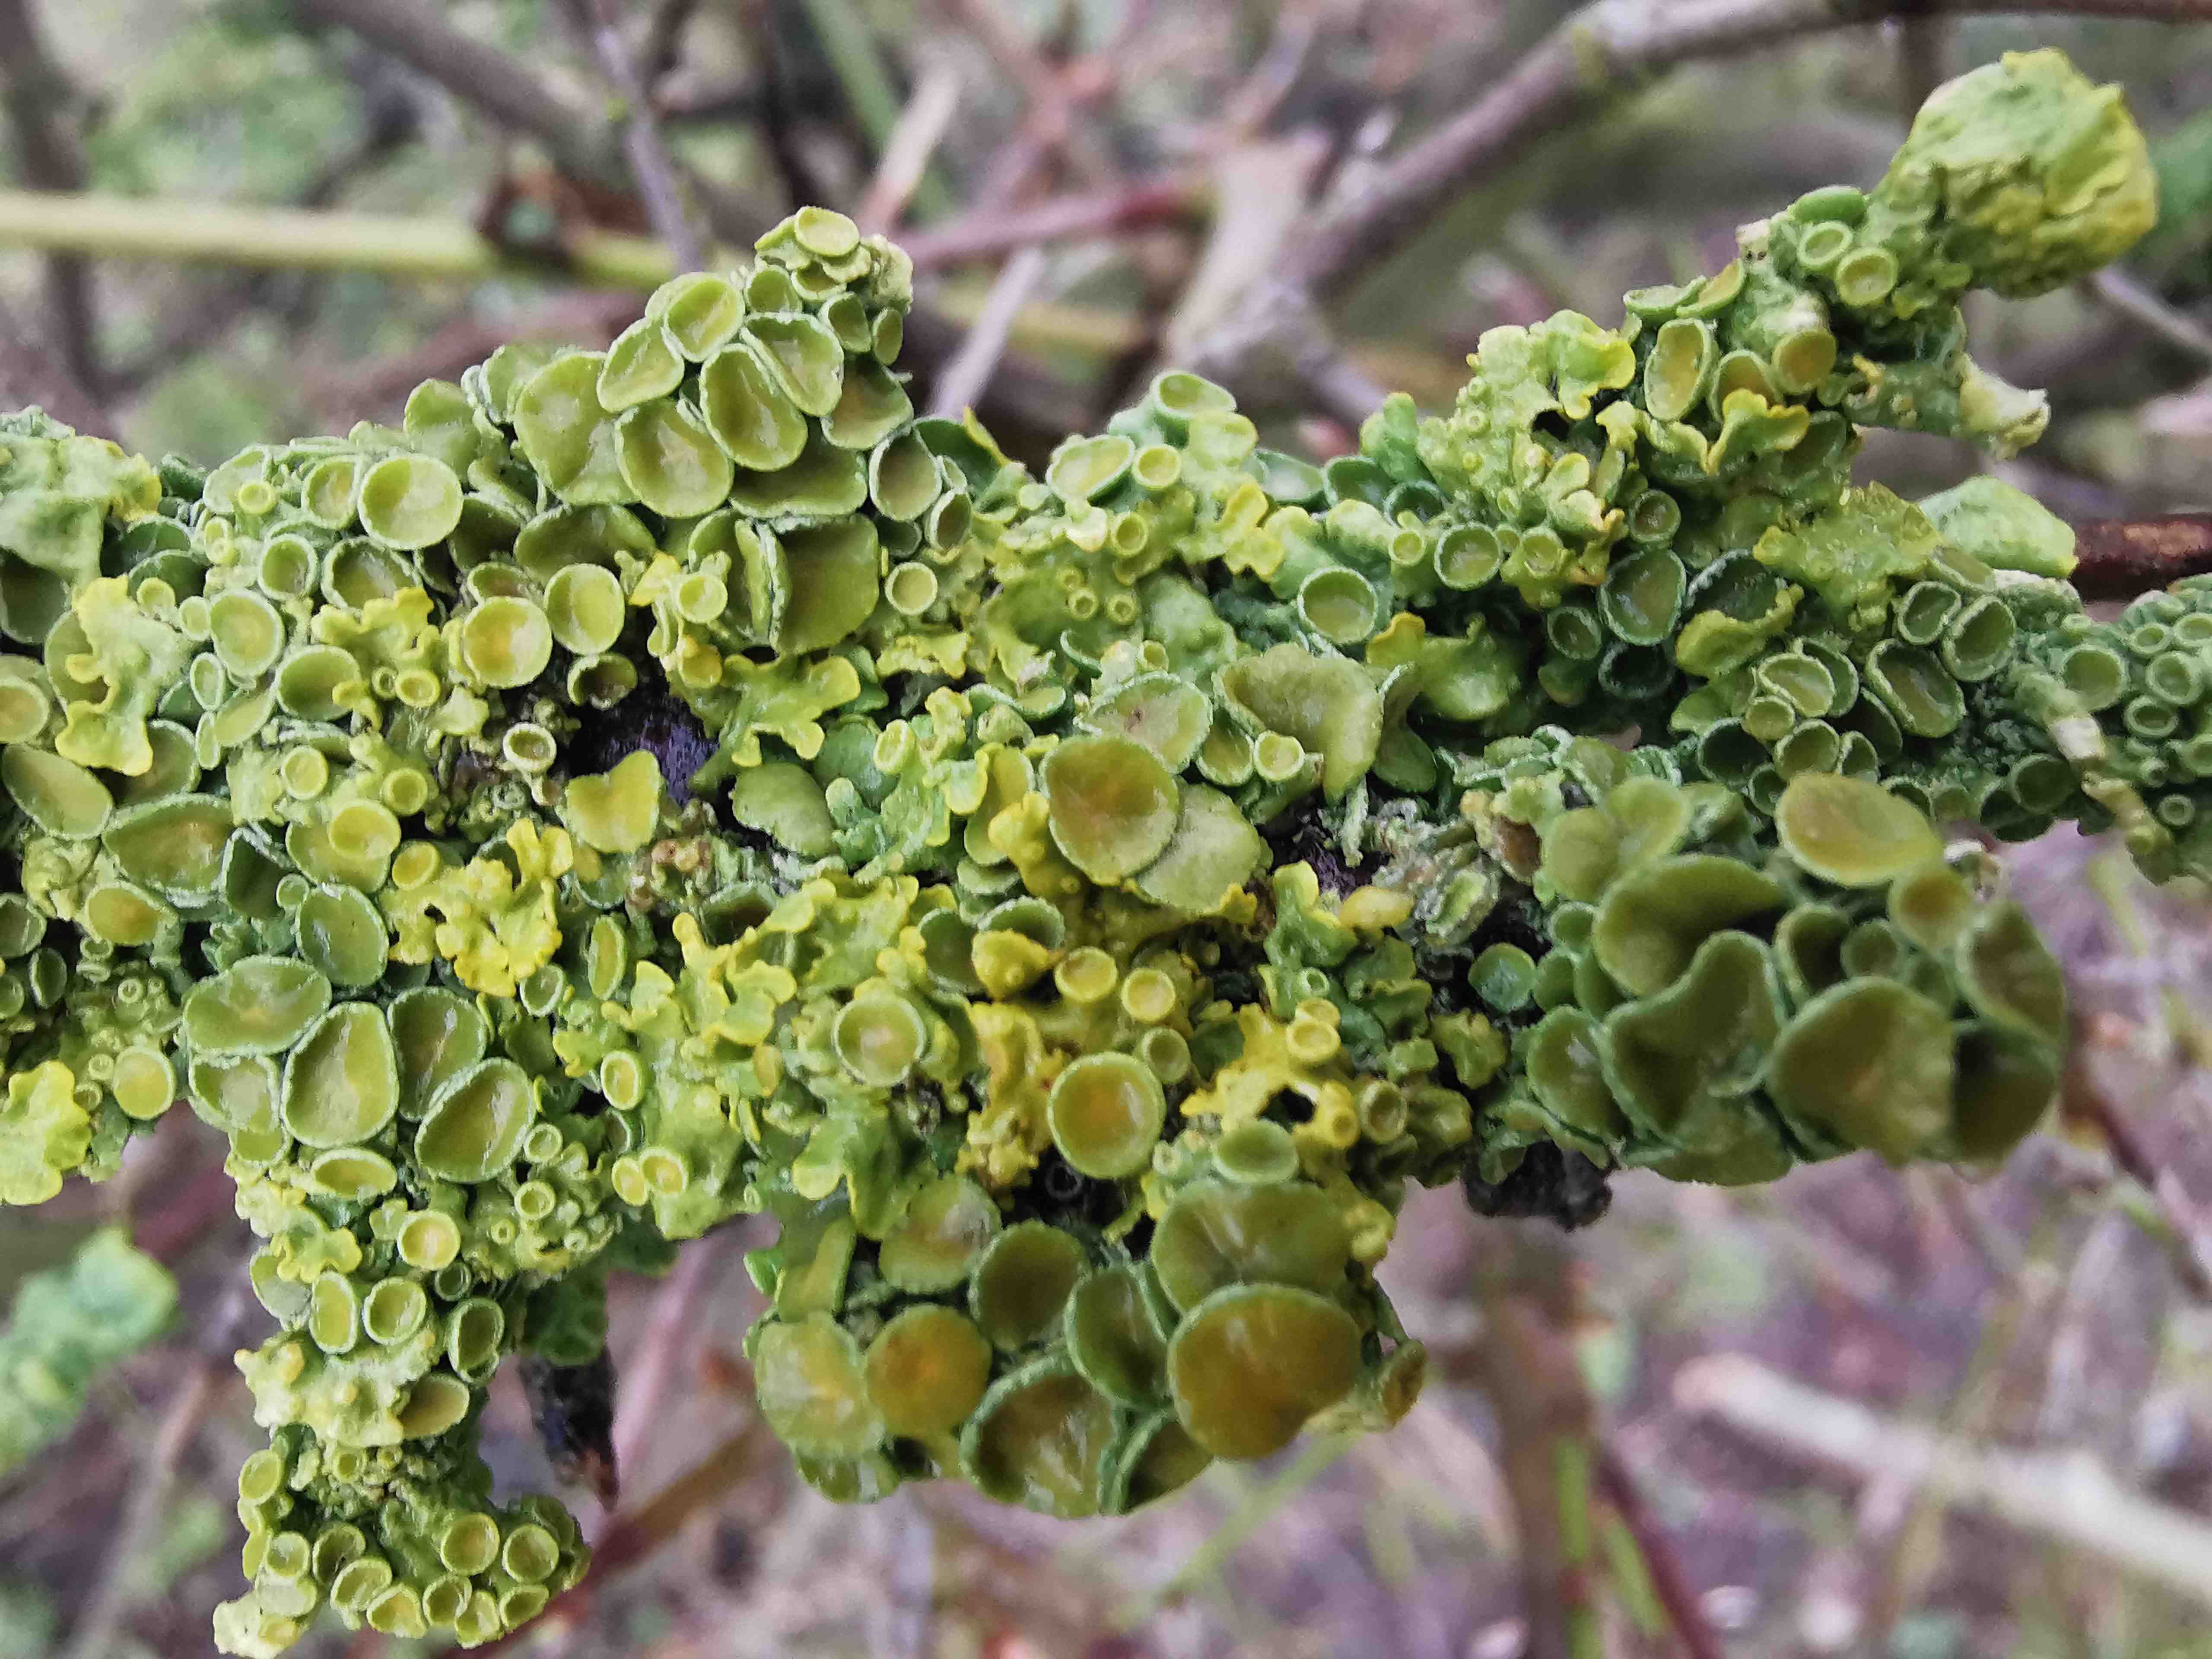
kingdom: Fungi
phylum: Ascomycota
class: Lecanoromycetes
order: Teloschistales
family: Teloschistaceae
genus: Xanthoria
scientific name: Xanthoria parietina
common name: almindelig væggelav
